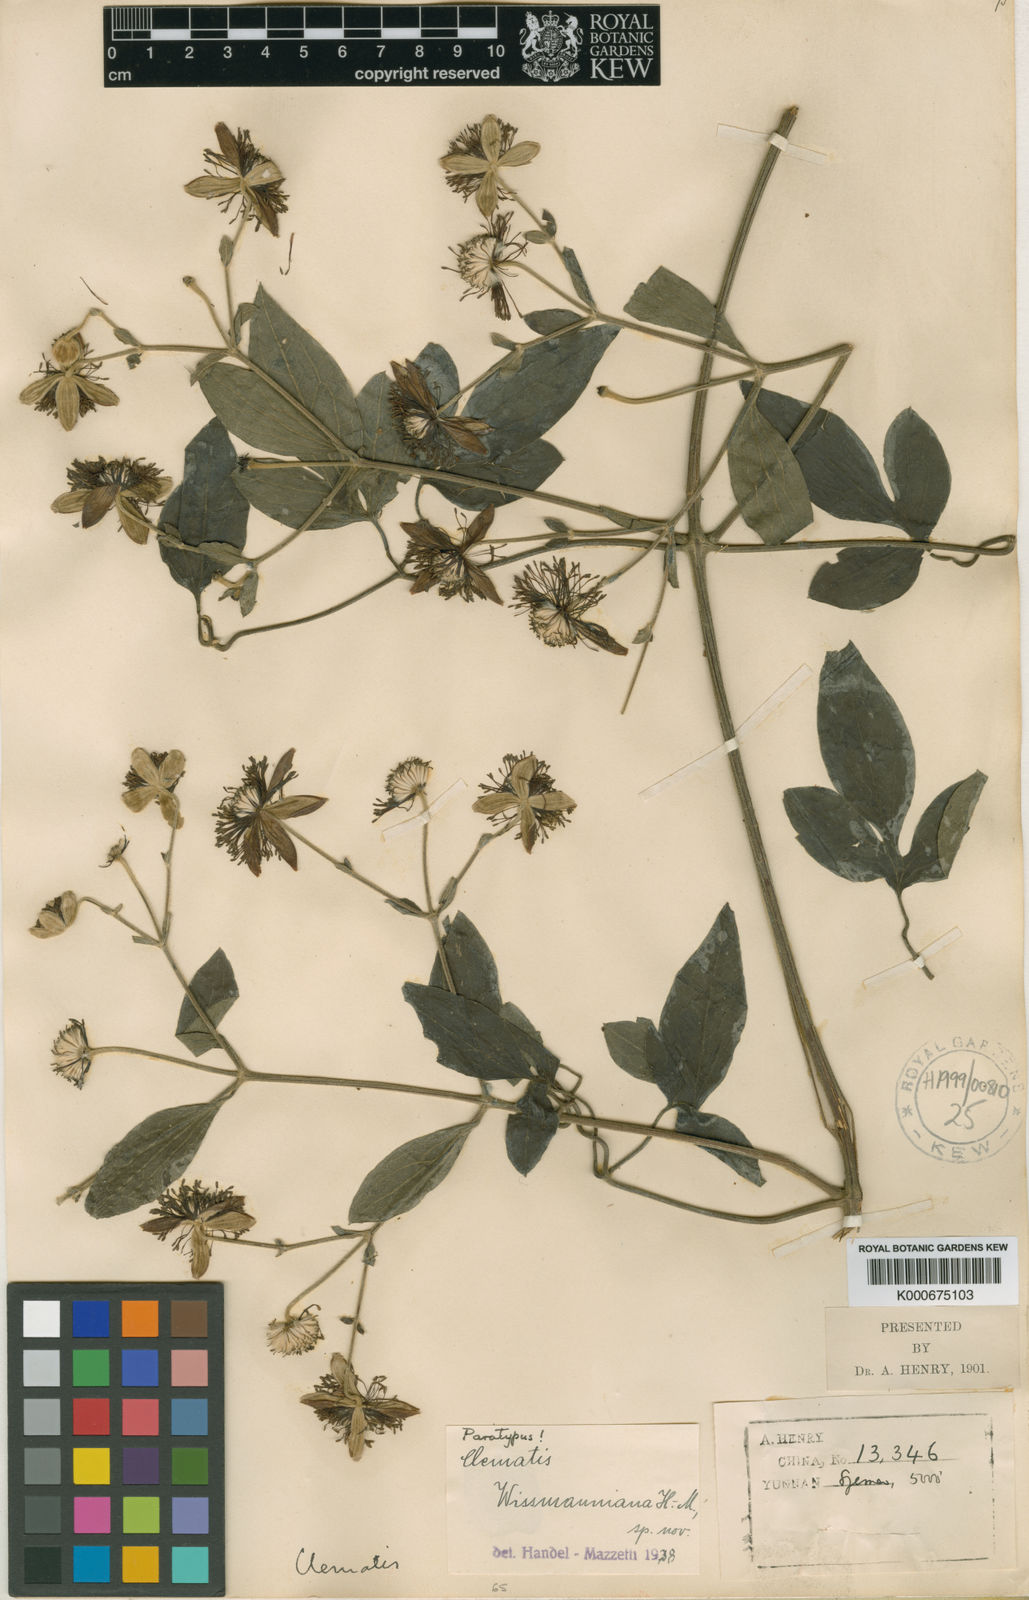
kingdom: Plantae
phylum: Tracheophyta
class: Magnoliopsida
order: Ranunculales
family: Ranunculaceae
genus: Clematis
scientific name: Clematis wissmanniana
